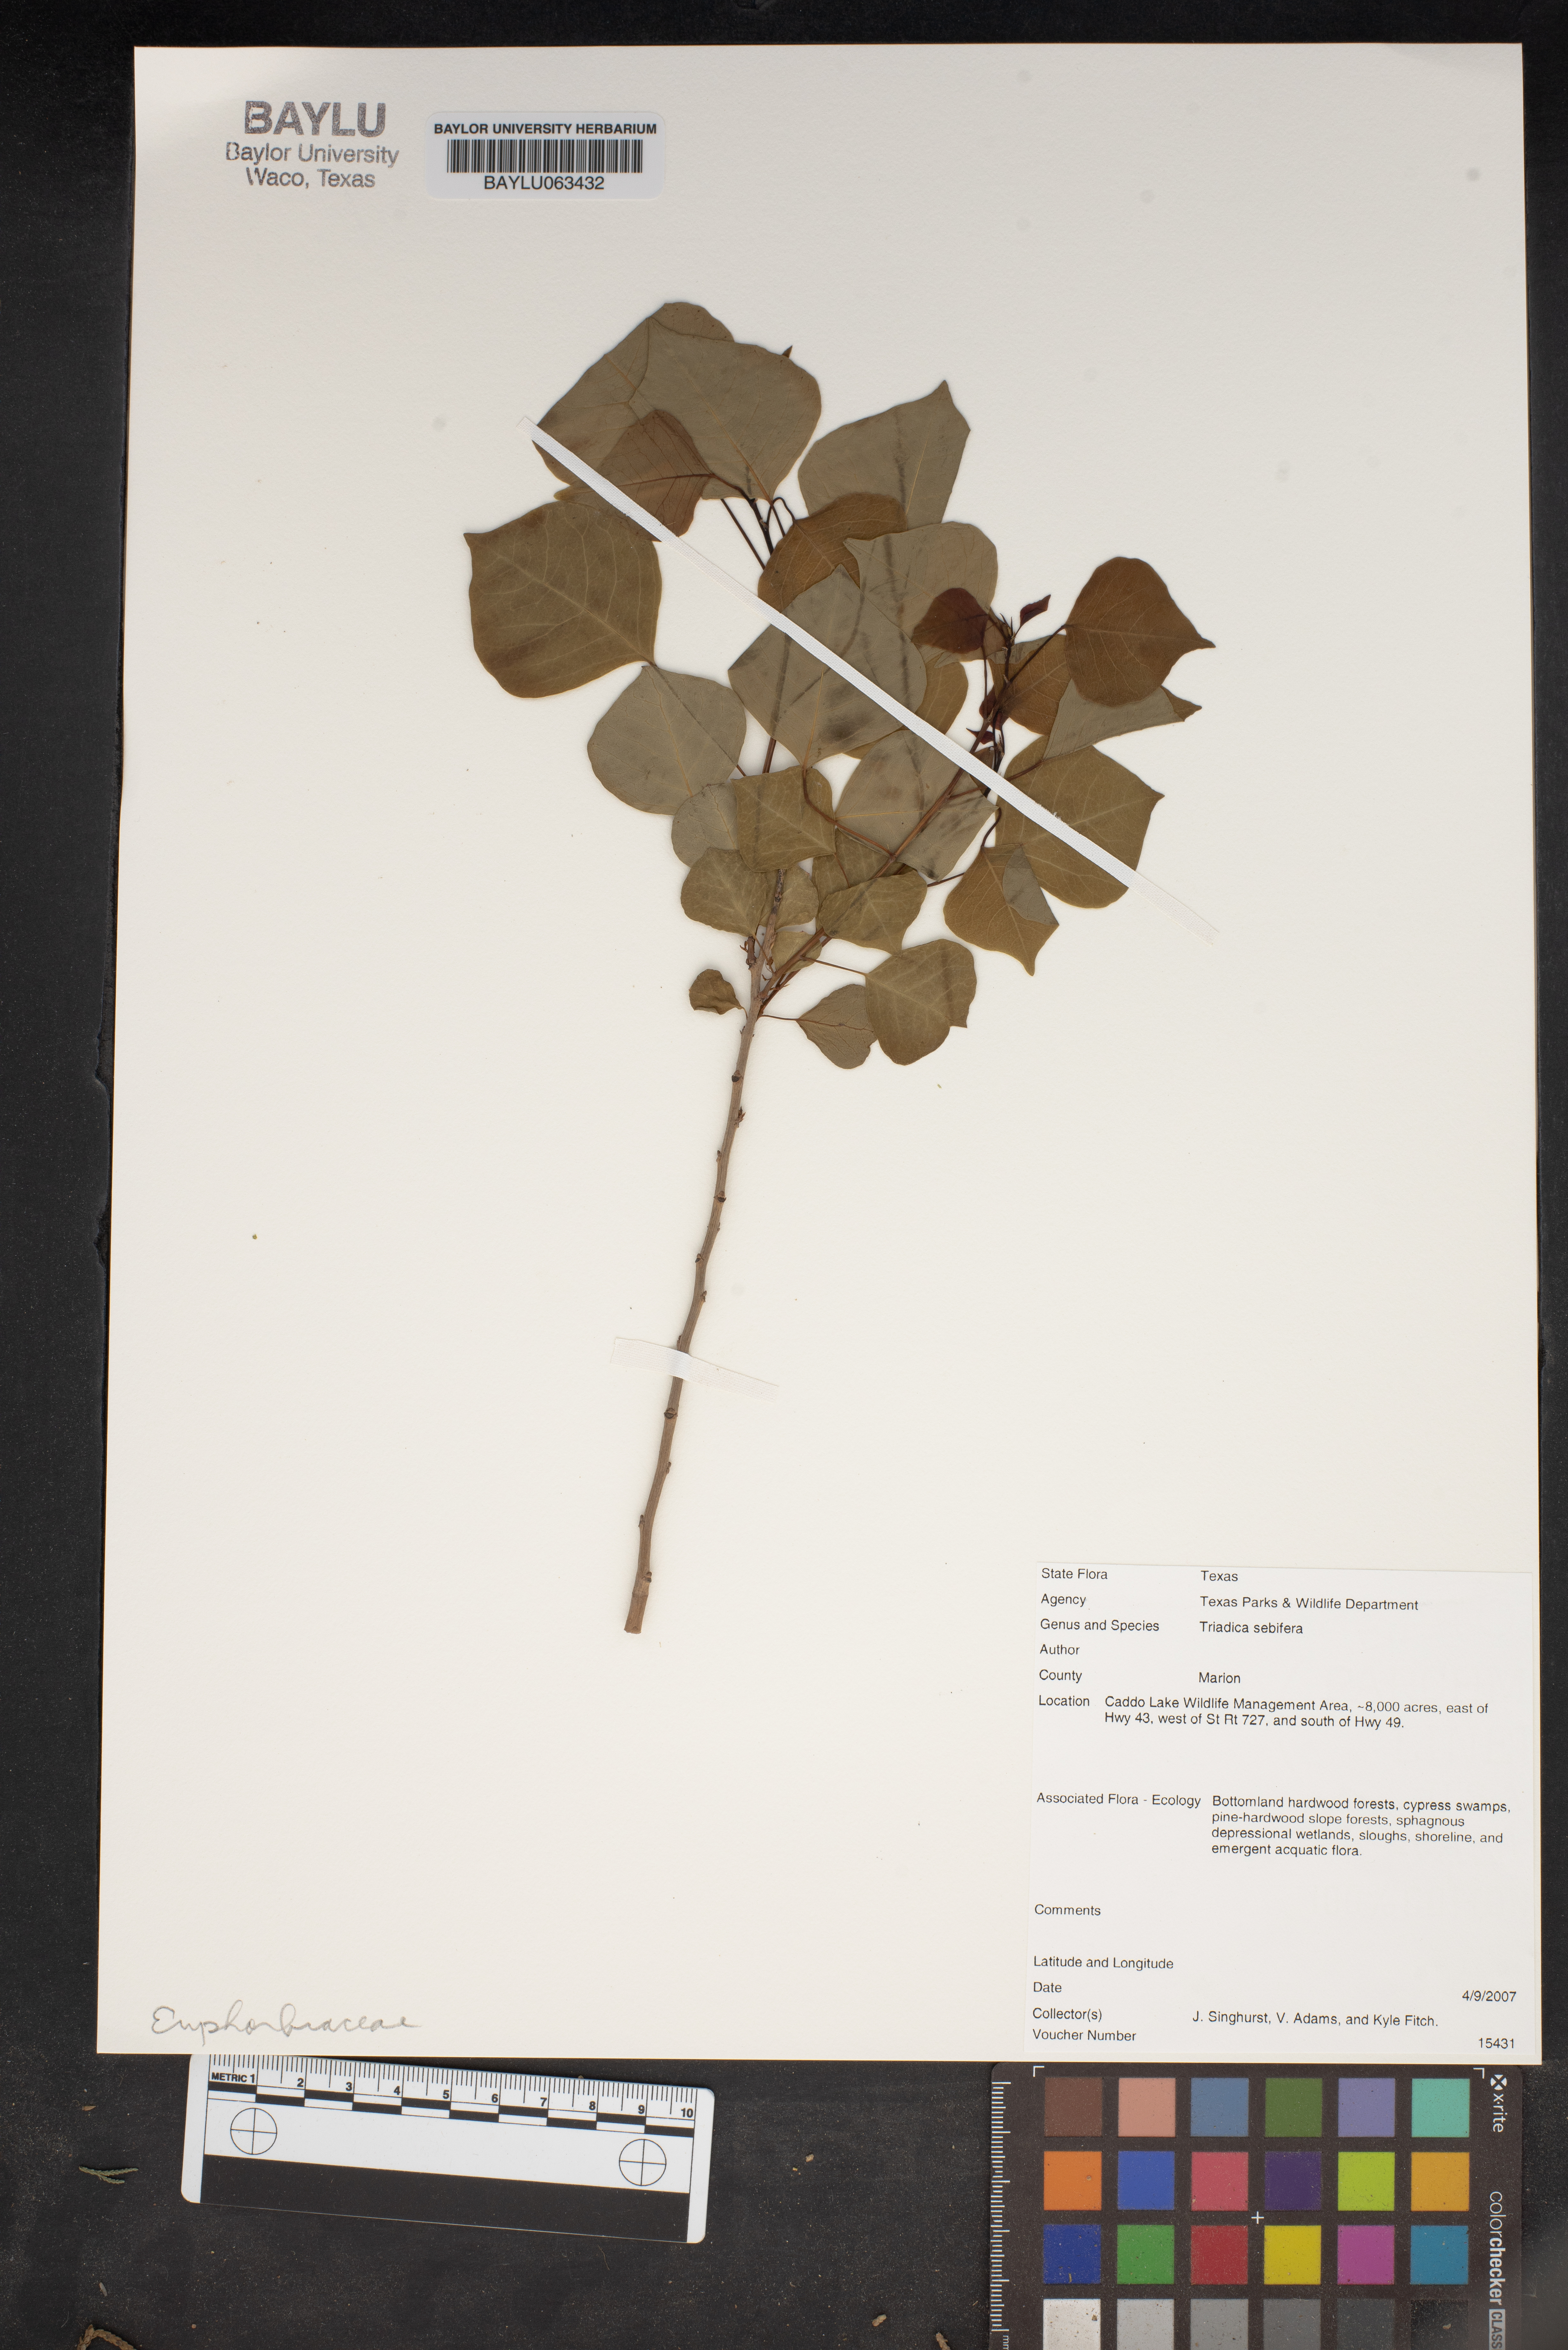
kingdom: Plantae
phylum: Tracheophyta
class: Magnoliopsida
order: Malpighiales
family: Euphorbiaceae
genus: Triadica
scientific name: Triadica sebifera
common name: Chinese tallow
